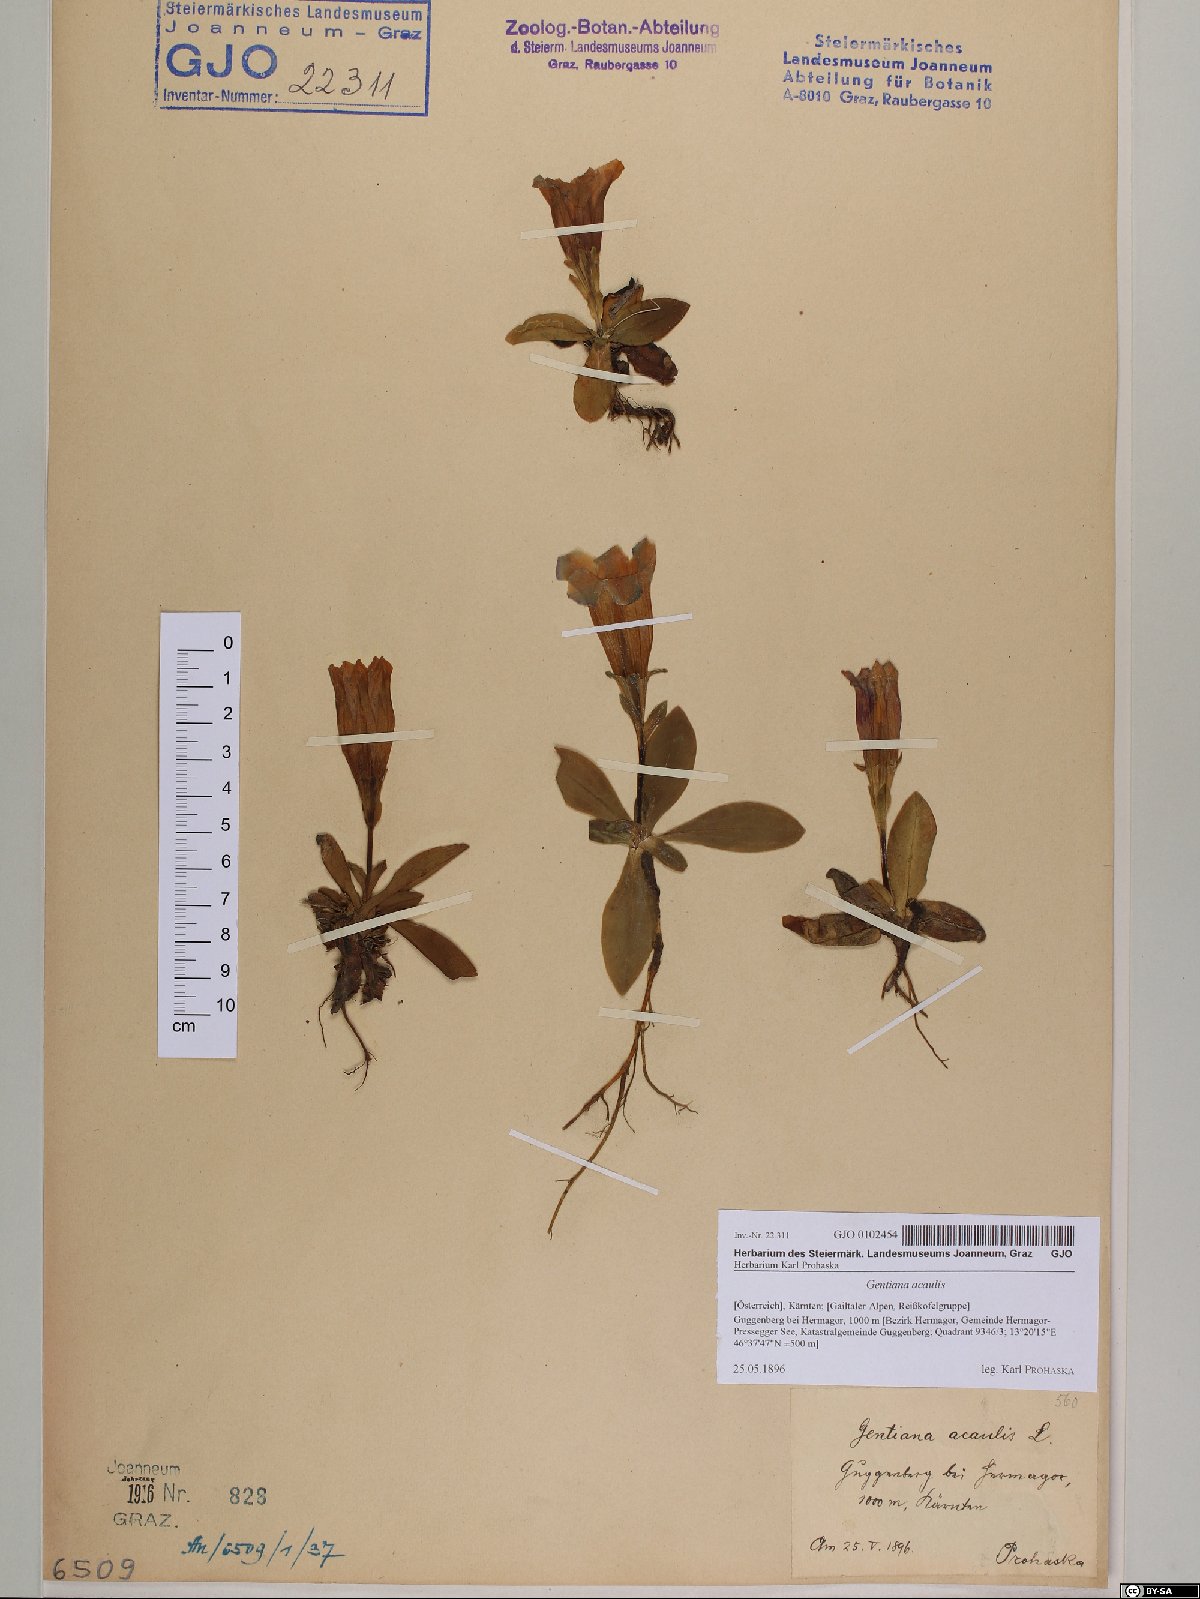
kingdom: Plantae
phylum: Tracheophyta
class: Magnoliopsida
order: Gentianales
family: Gentianaceae
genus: Gentiana
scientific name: Gentiana acaulis
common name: Trumpet gentian
